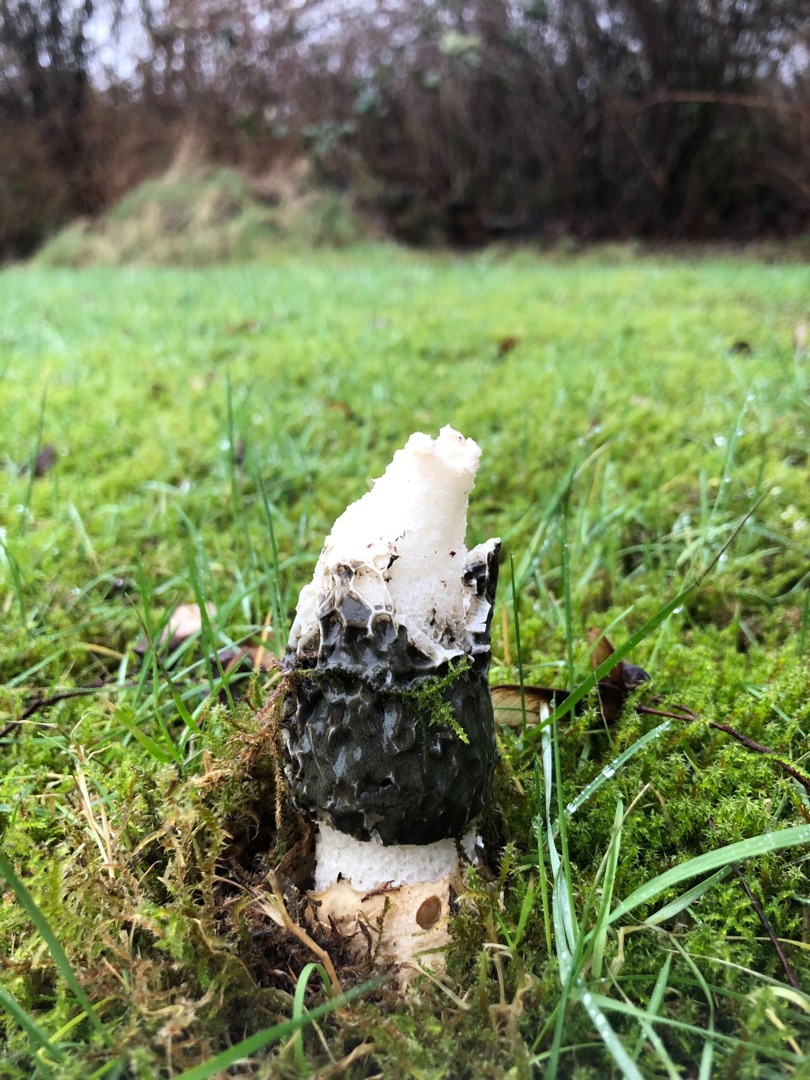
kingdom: Fungi
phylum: Basidiomycota
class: Agaricomycetes
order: Phallales
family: Phallaceae
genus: Phallus
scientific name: Phallus impudicus
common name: Almindelig stinksvamp
